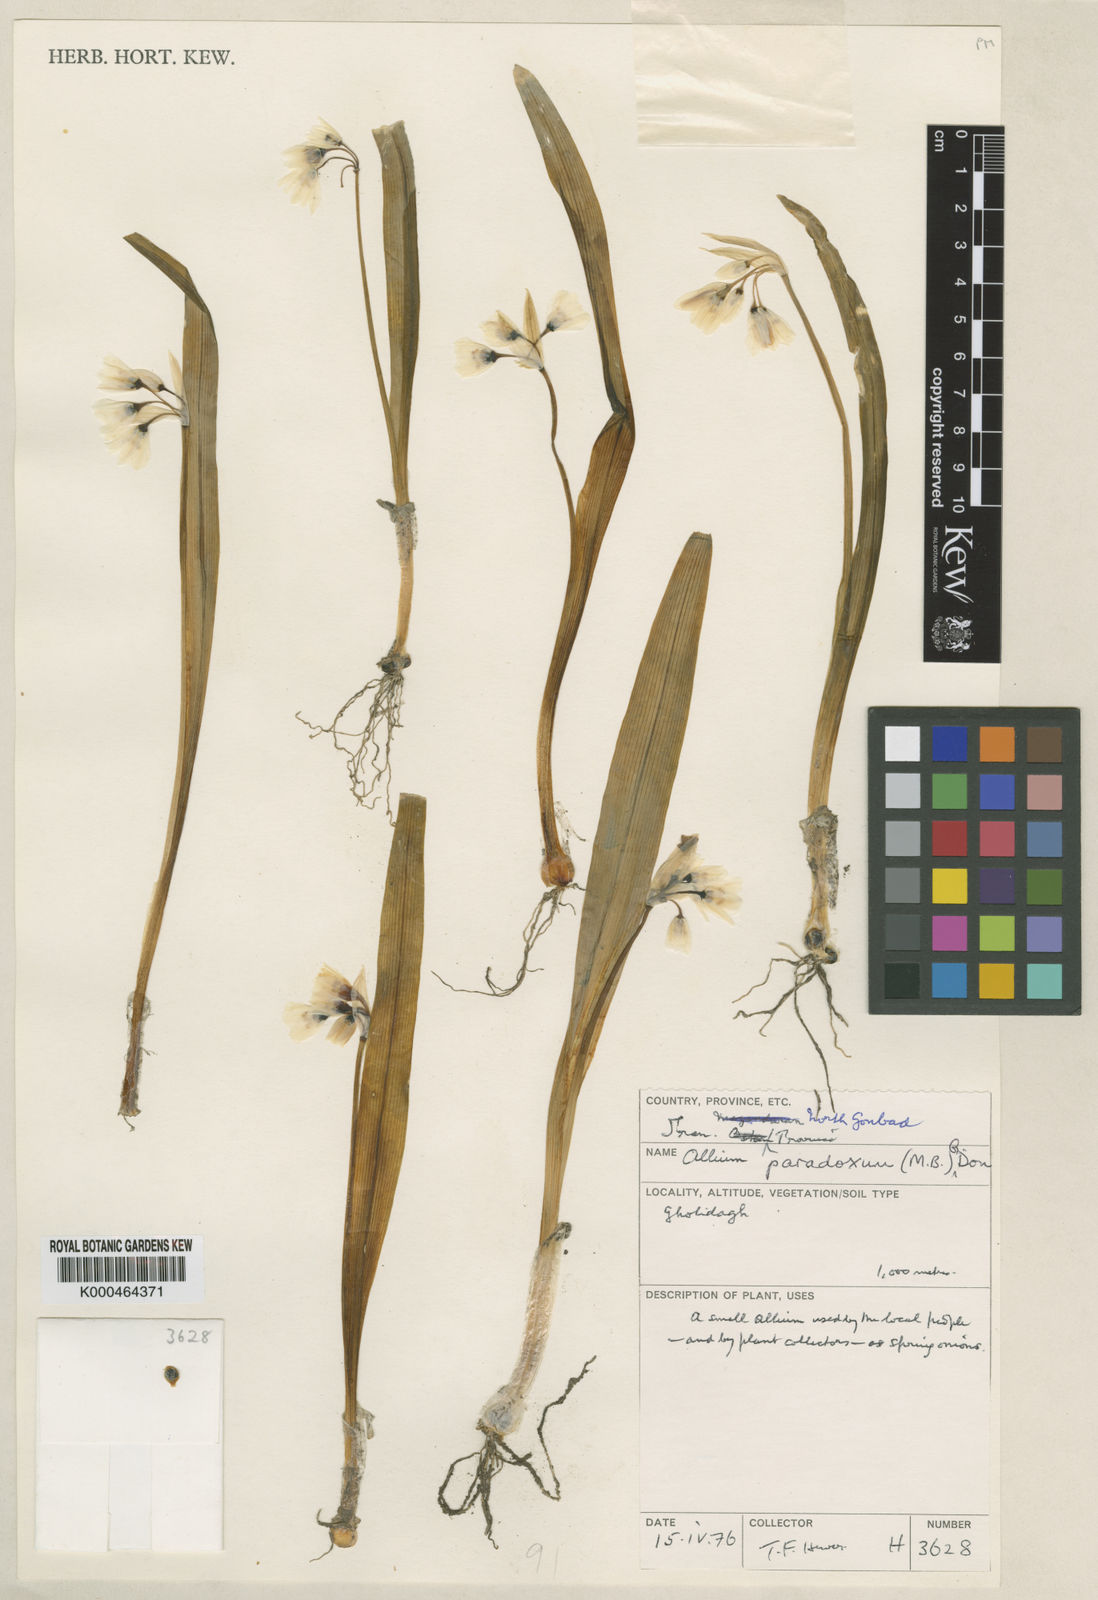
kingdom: Plantae
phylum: Tracheophyta
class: Liliopsida
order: Asparagales
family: Amaryllidaceae
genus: Allium
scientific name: Allium paradoxum
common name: Few-flowered garlic
